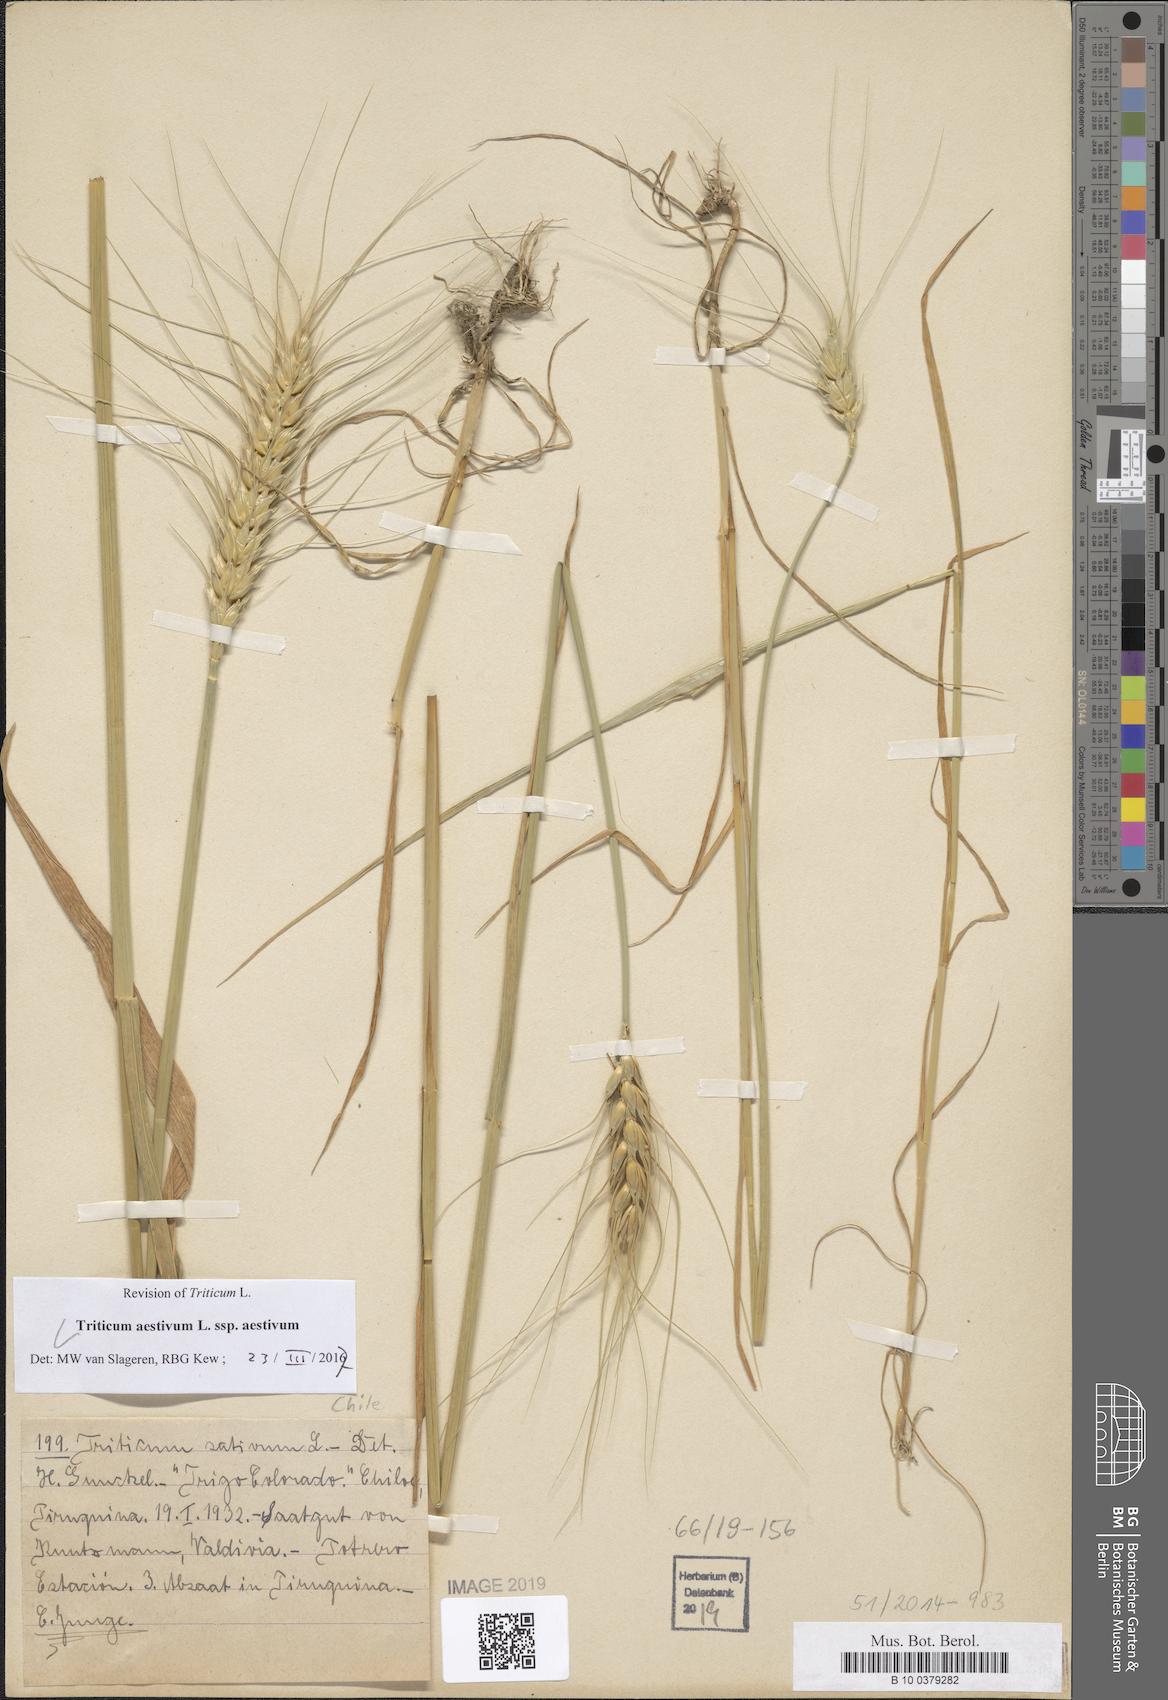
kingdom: Plantae
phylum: Tracheophyta
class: Liliopsida
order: Poales
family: Poaceae
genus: Triticum
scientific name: Triticum aestivum
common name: Common wheat
